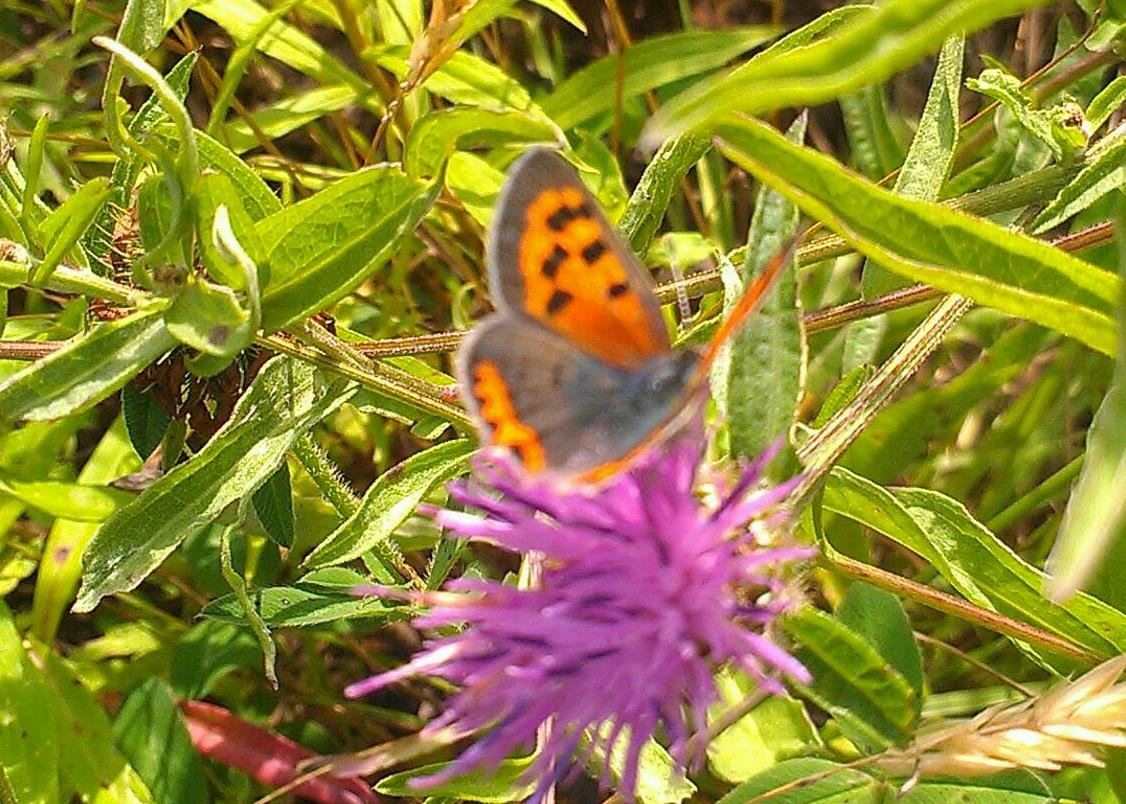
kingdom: Animalia
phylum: Arthropoda
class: Insecta
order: Lepidoptera
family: Lycaenidae
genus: Lycaena
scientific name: Lycaena phlaeas
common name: American Copper
